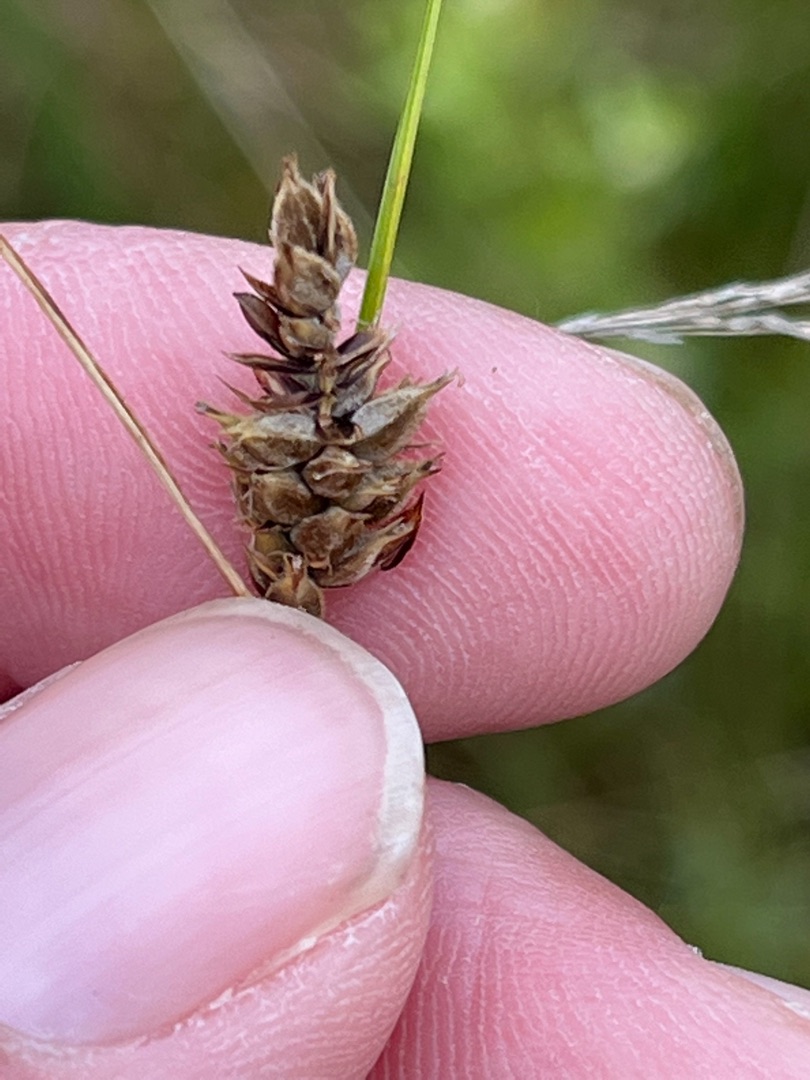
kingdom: Plantae
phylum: Tracheophyta
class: Liliopsida
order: Poales
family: Cyperaceae
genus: Carex
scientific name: Carex lasiocarpa
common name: Tråd-star
